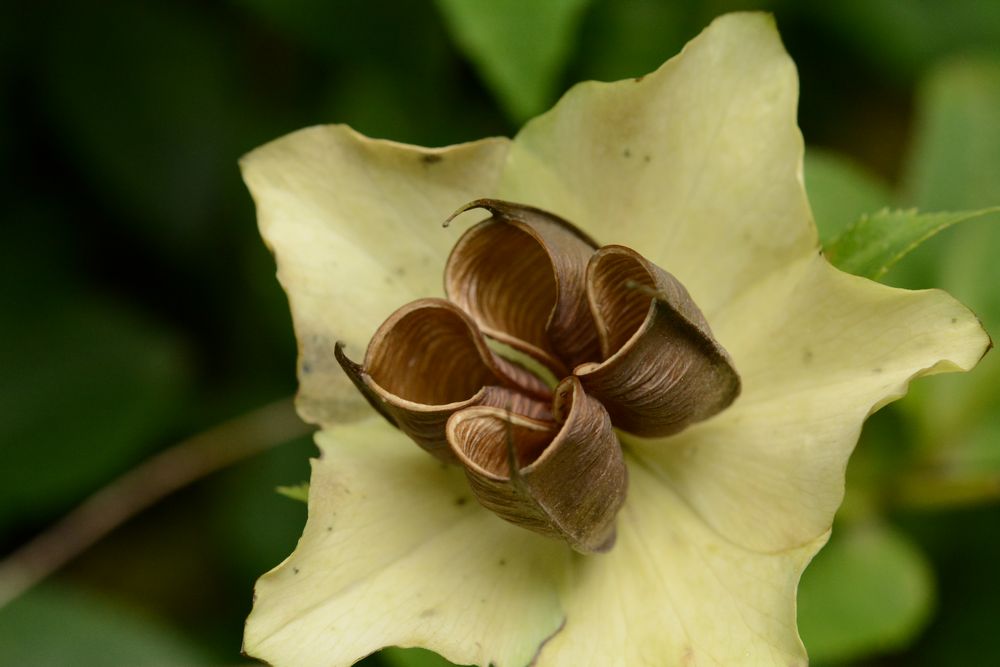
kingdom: Plantae
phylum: Tracheophyta
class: Magnoliopsida
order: Ranunculales
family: Ranunculaceae
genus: Helleborus
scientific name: Helleborus orientalis
